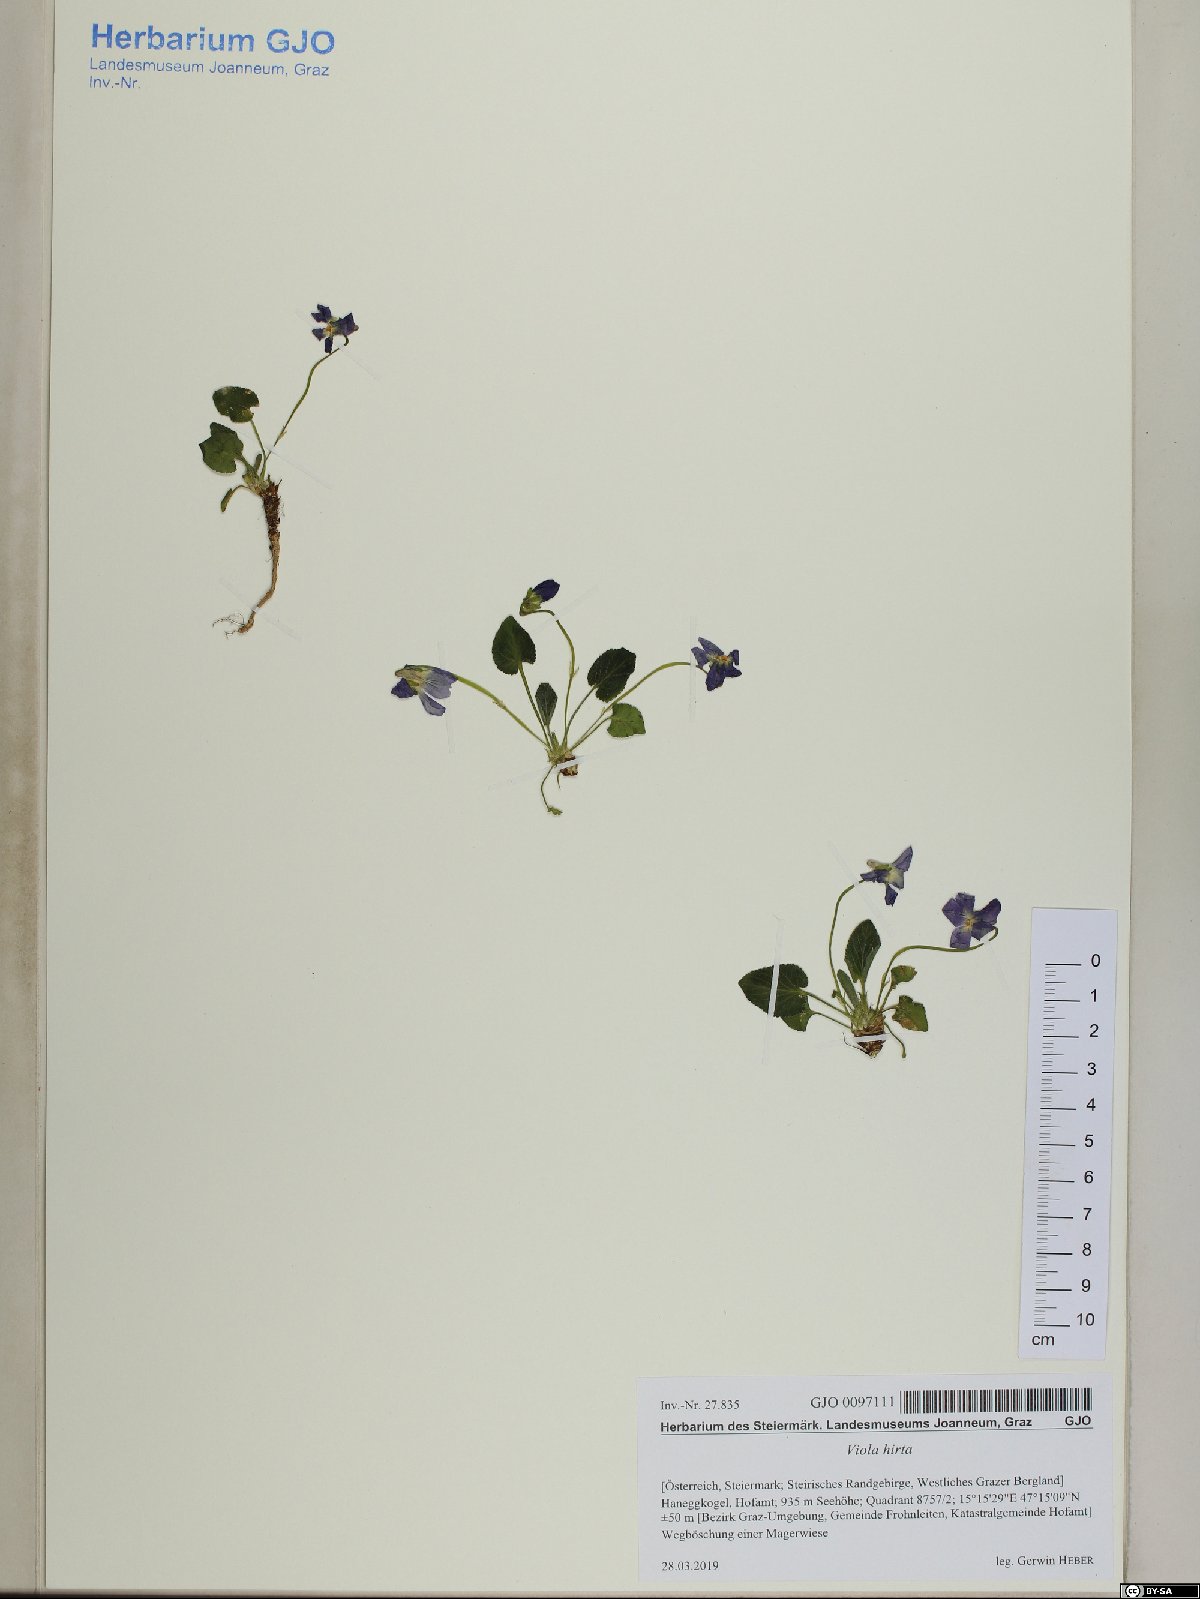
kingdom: Plantae
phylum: Tracheophyta
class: Magnoliopsida
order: Malpighiales
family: Violaceae
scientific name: Violaceae
